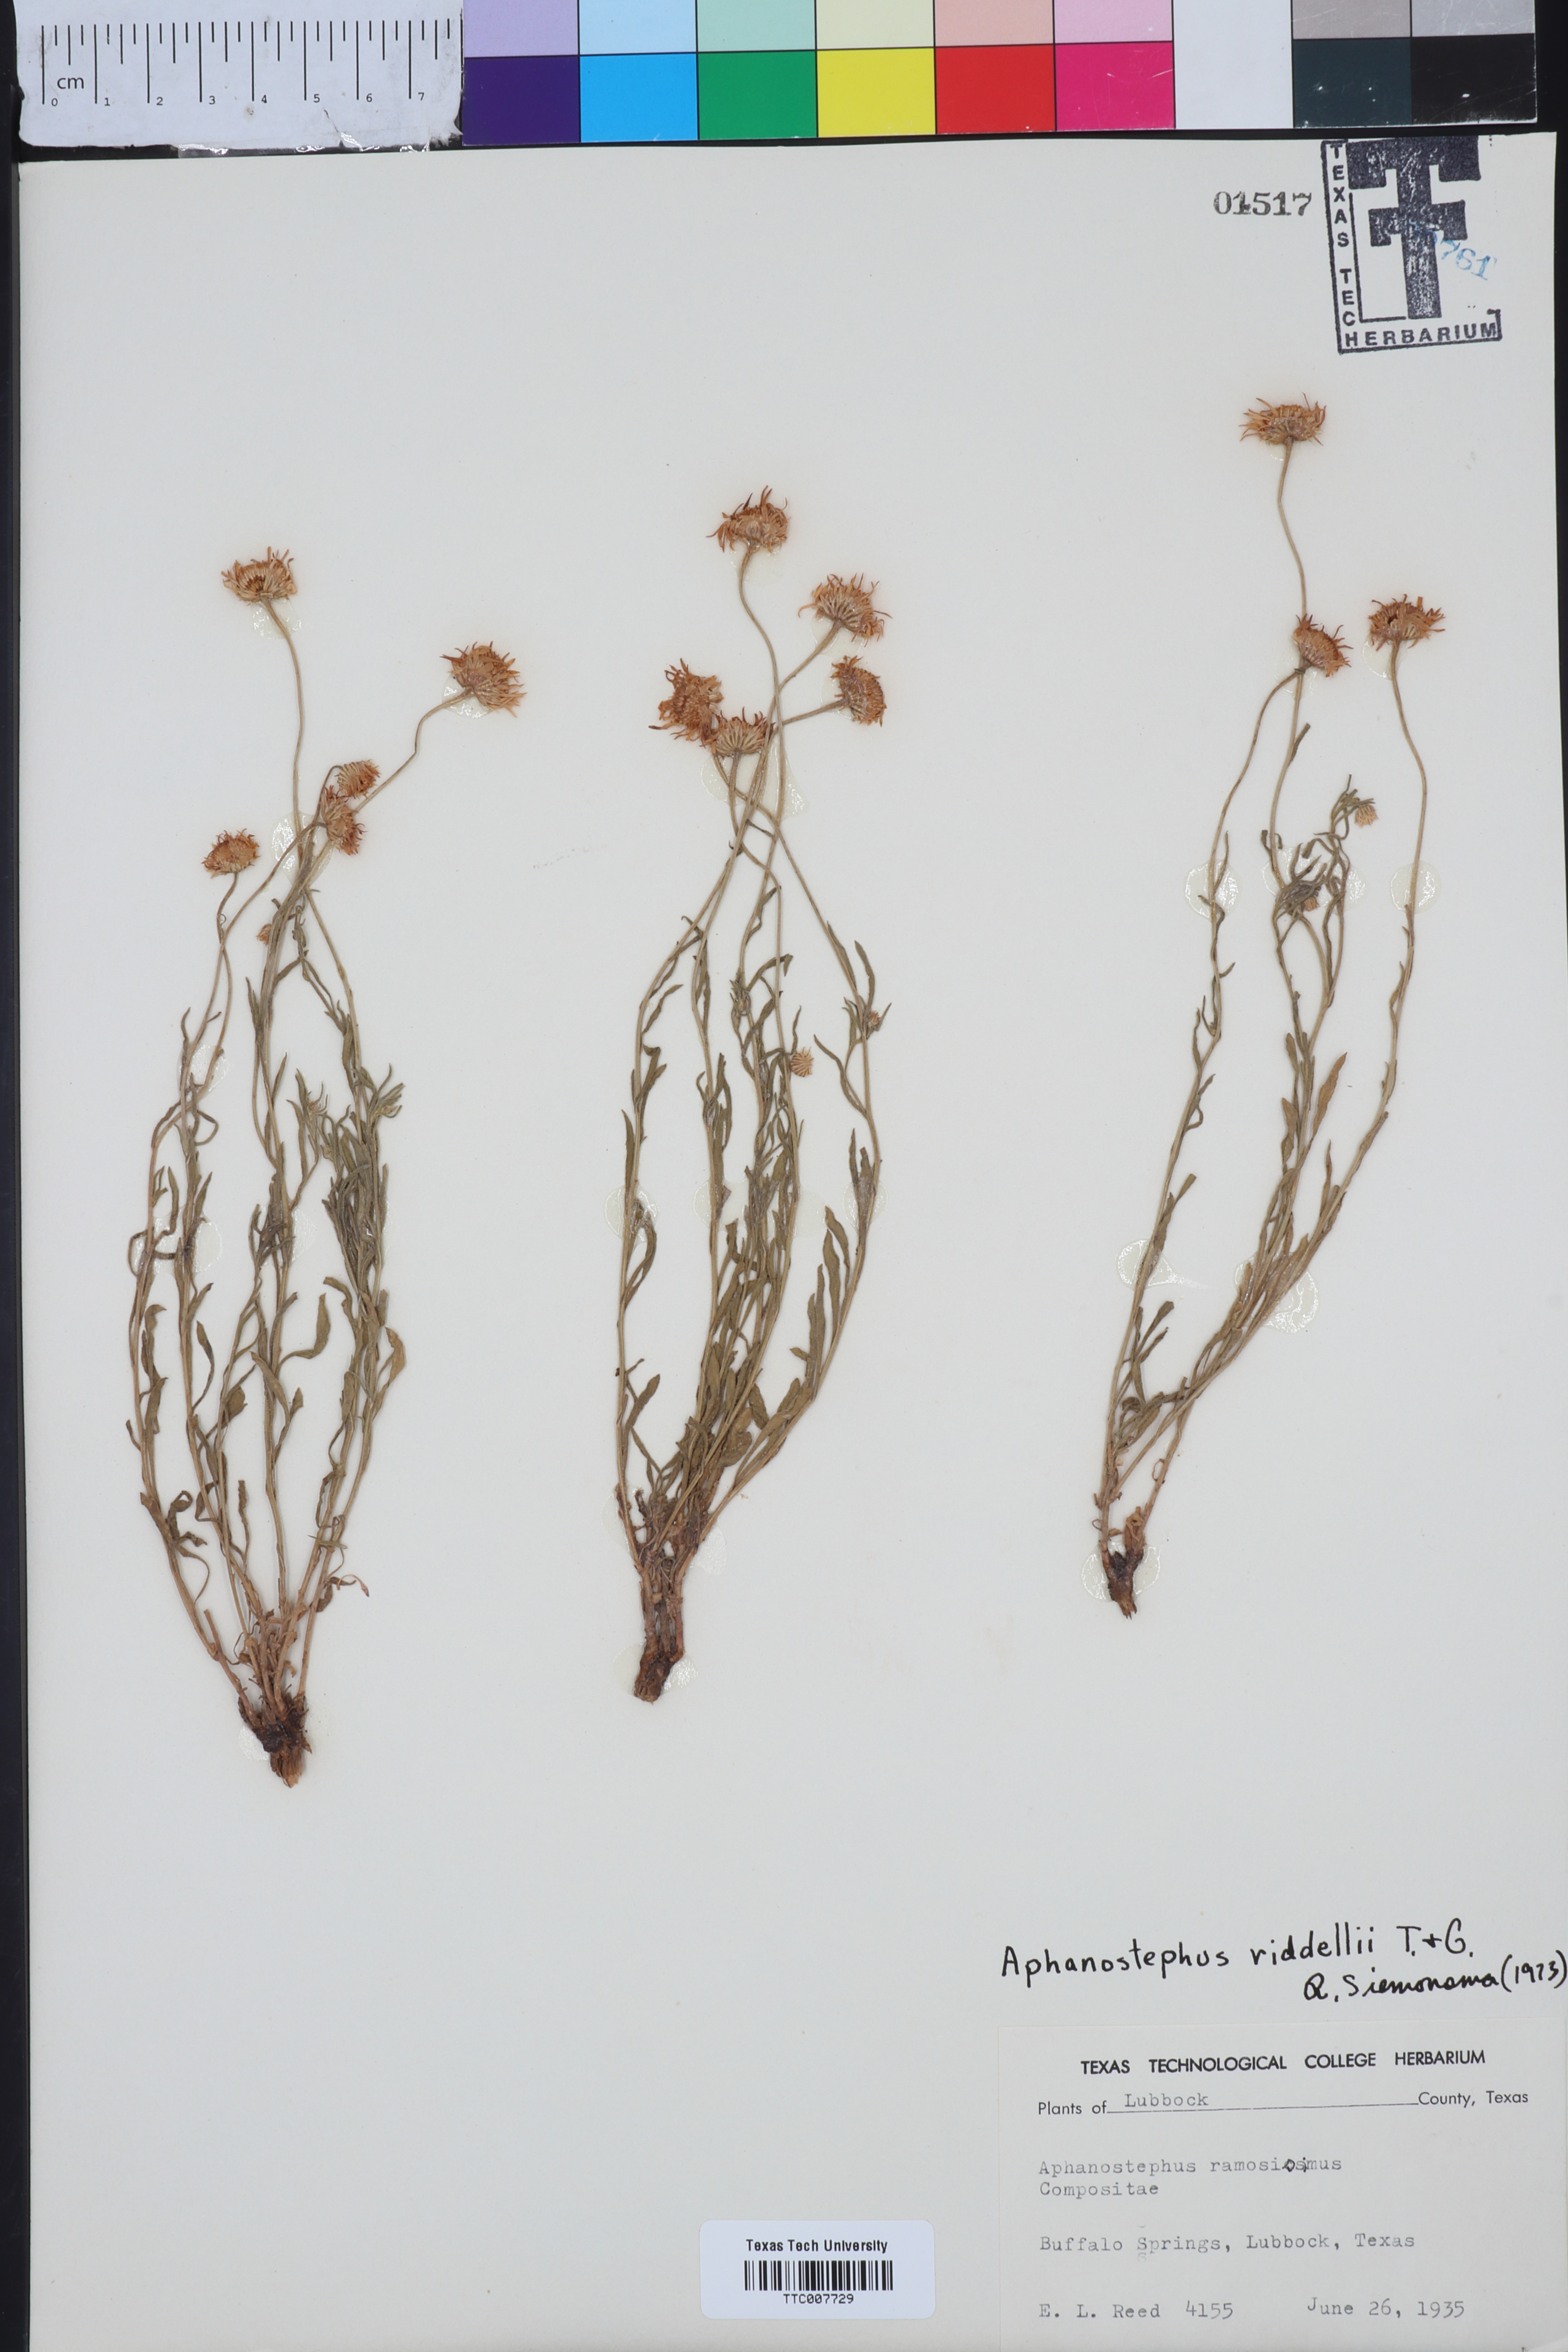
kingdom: Plantae
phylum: Tracheophyta
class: Magnoliopsida
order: Asterales
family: Asteraceae
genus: Aphanostephus
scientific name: Aphanostephus riddellii
